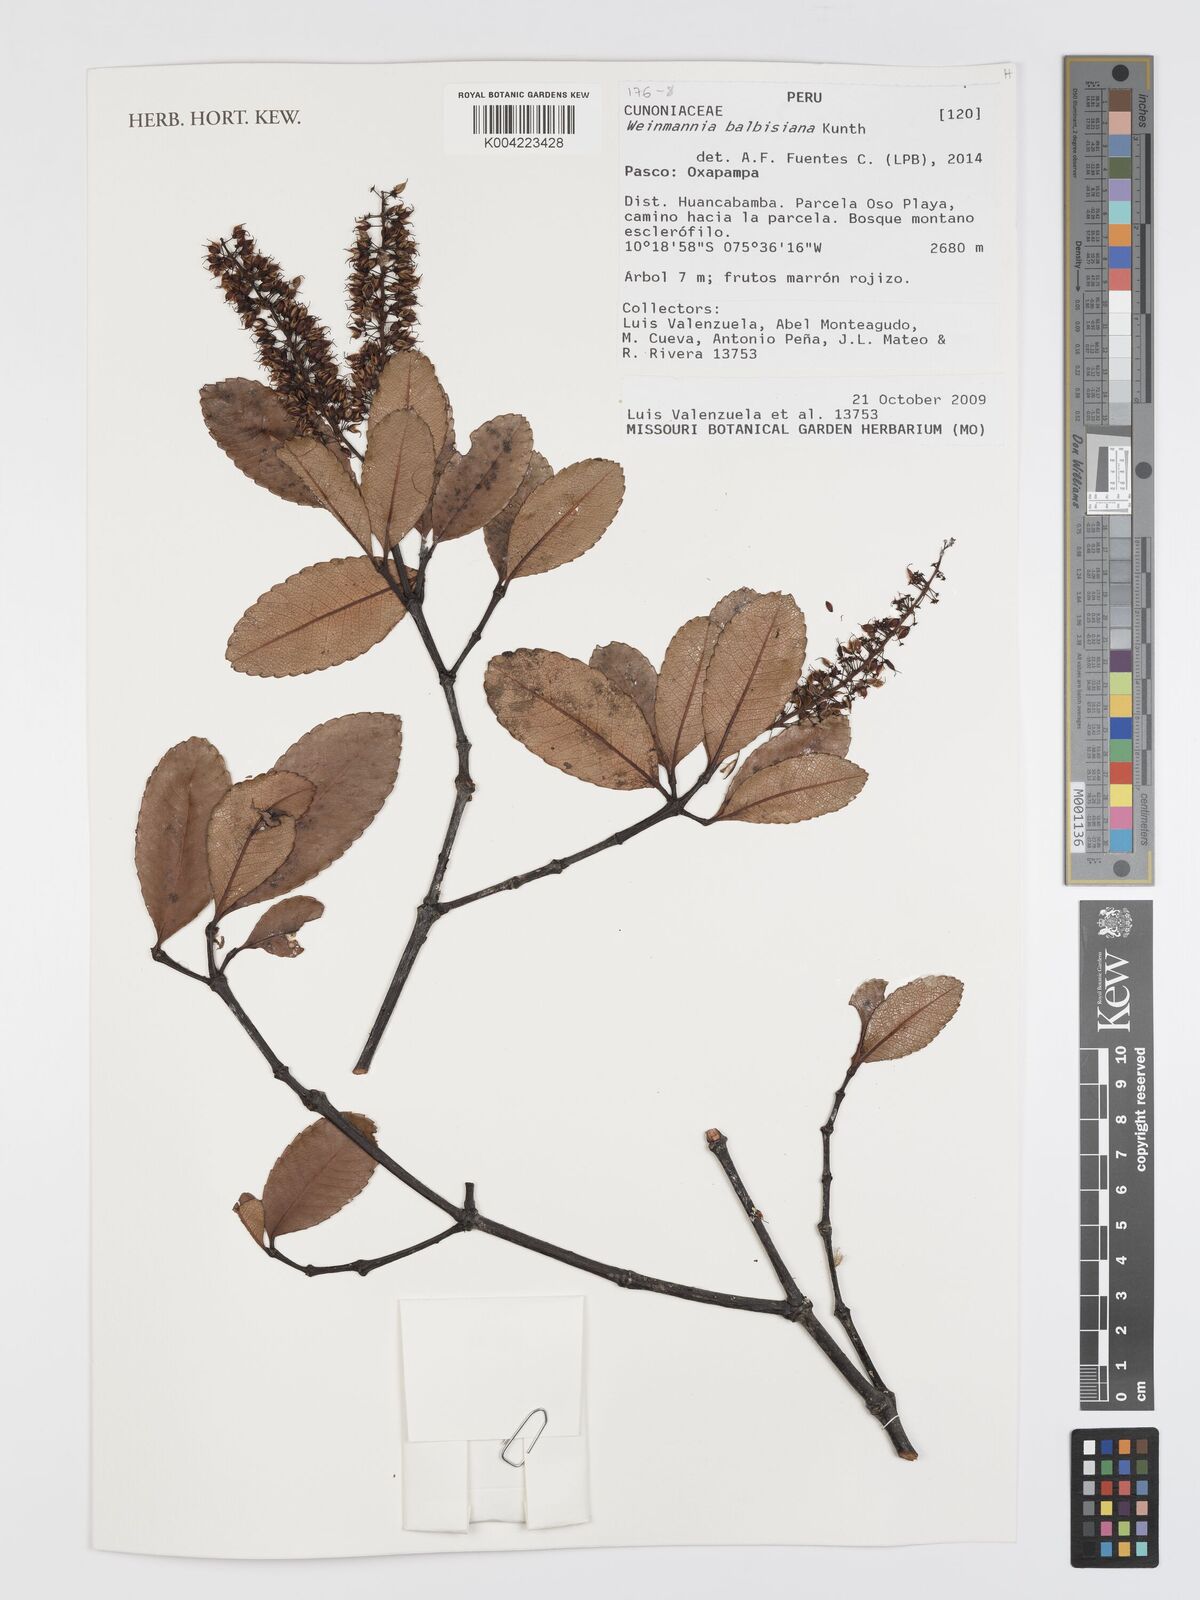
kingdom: Plantae
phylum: Tracheophyta
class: Magnoliopsida
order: Oxalidales
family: Cunoniaceae
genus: Weinmannia
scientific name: Weinmannia balbisana
